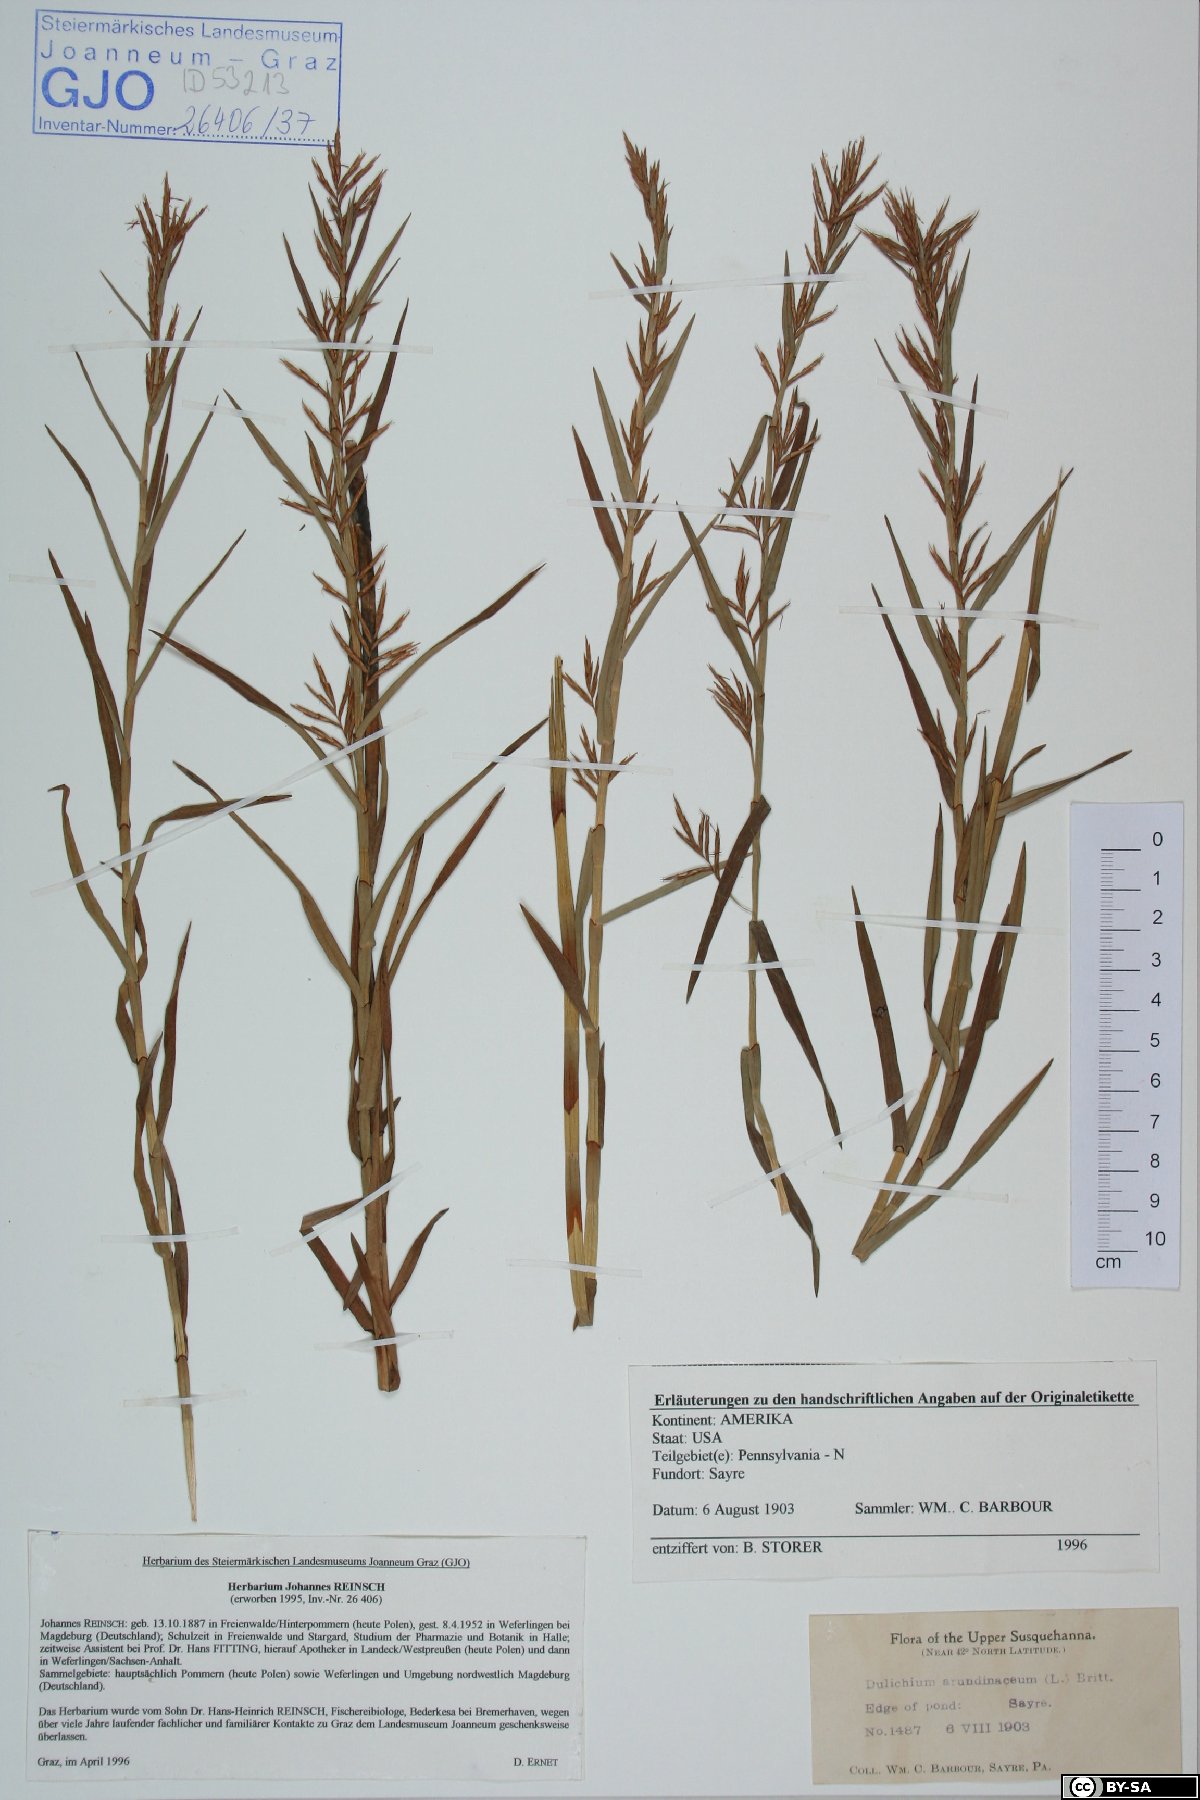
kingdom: Plantae
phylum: Tracheophyta
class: Liliopsida
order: Poales
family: Cyperaceae
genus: Dulichium
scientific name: Dulichium arundinaceum
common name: Three-way sedge
